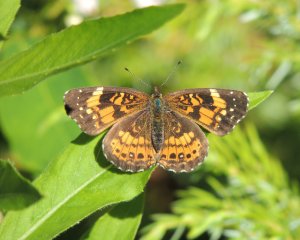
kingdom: Animalia
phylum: Arthropoda
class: Insecta
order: Lepidoptera
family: Nymphalidae
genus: Chlosyne
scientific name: Chlosyne nycteis
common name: Silvery Checkerspot
